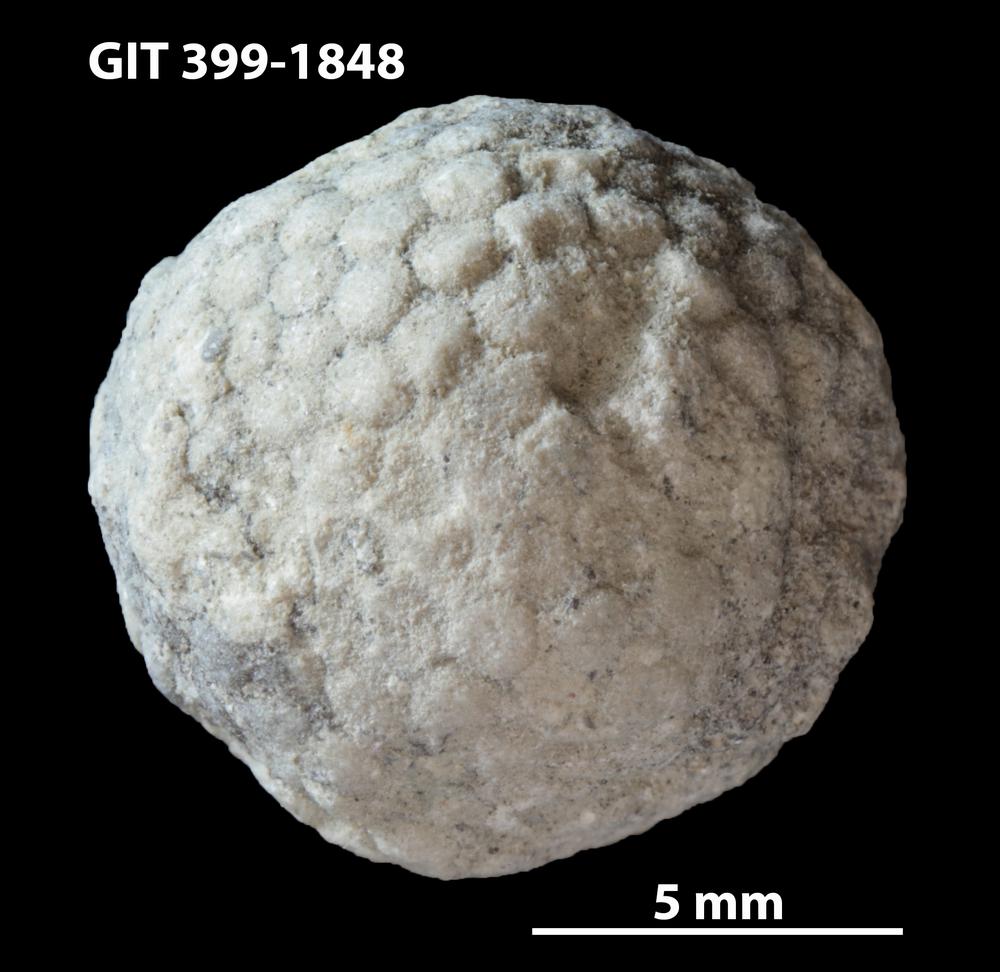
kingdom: Plantae
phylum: Chlorophyta
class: Ulvophyceae
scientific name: Ulvophyceae
